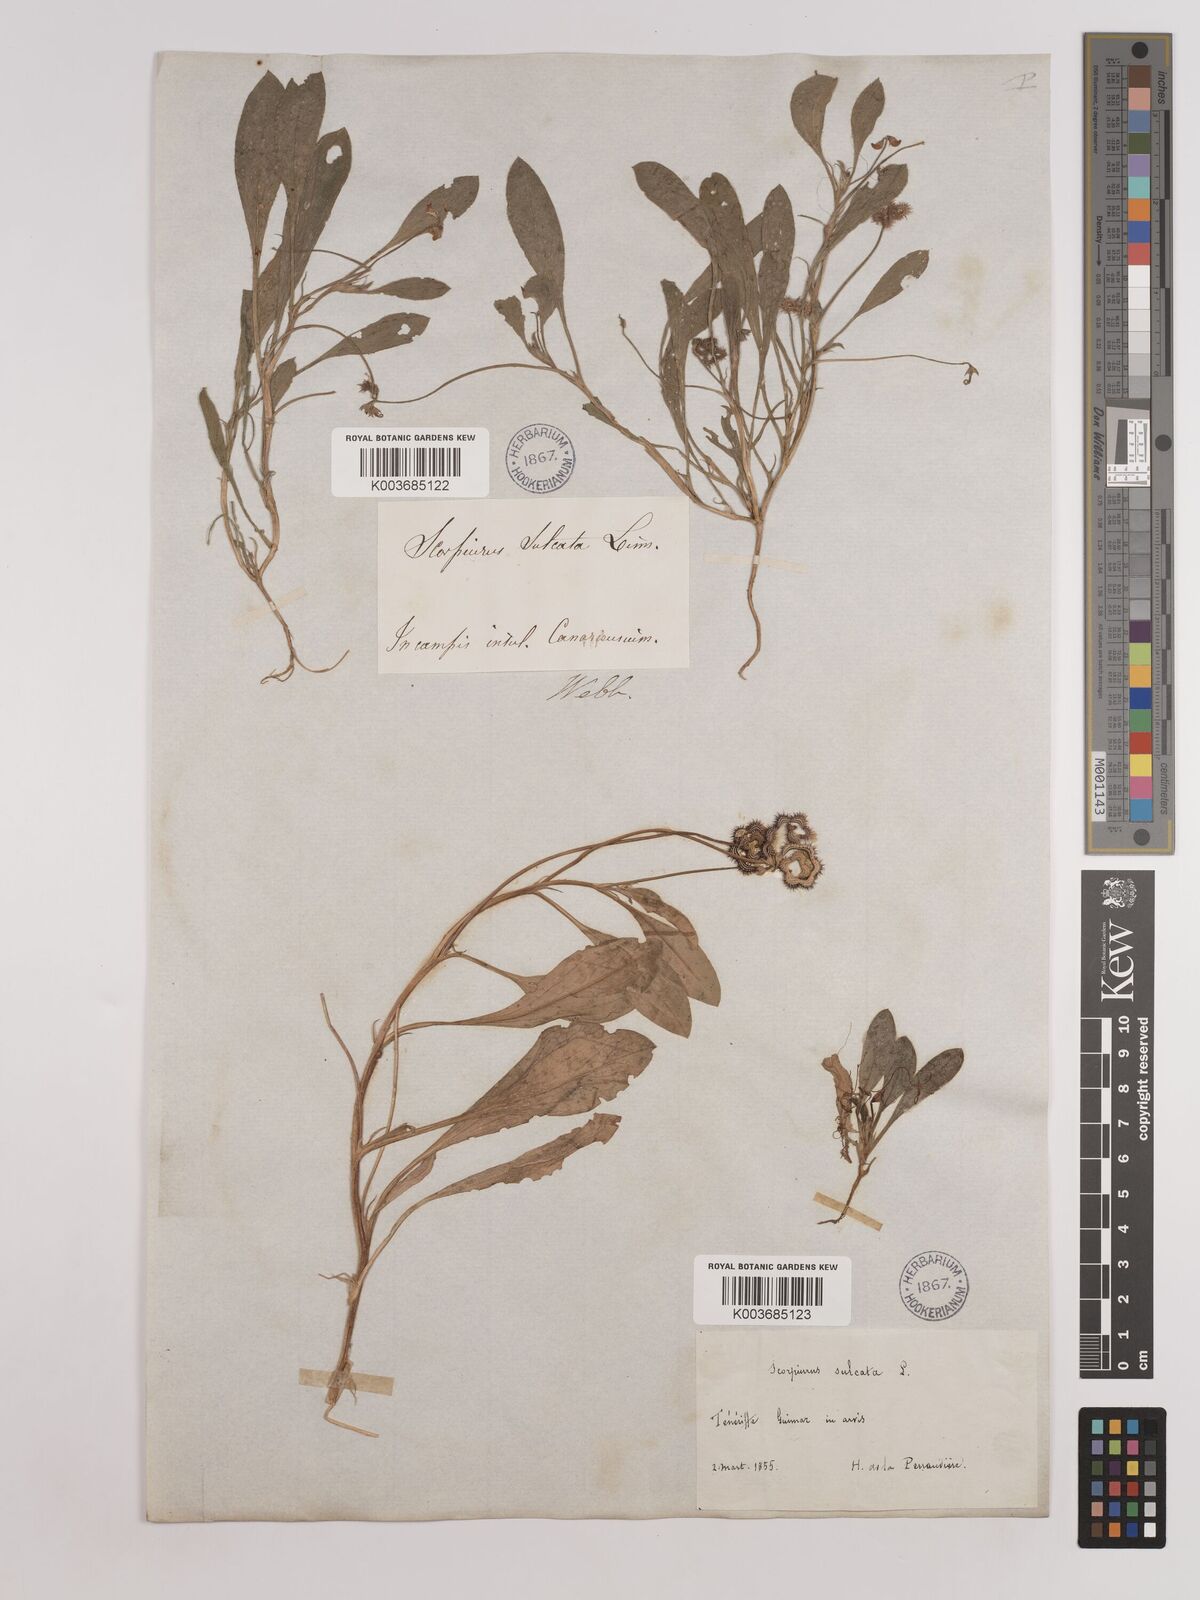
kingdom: Plantae
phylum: Tracheophyta
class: Magnoliopsida
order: Fabales
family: Fabaceae
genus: Scorpiurus
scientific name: Scorpiurus muricatus
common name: Caterpillar-plant
